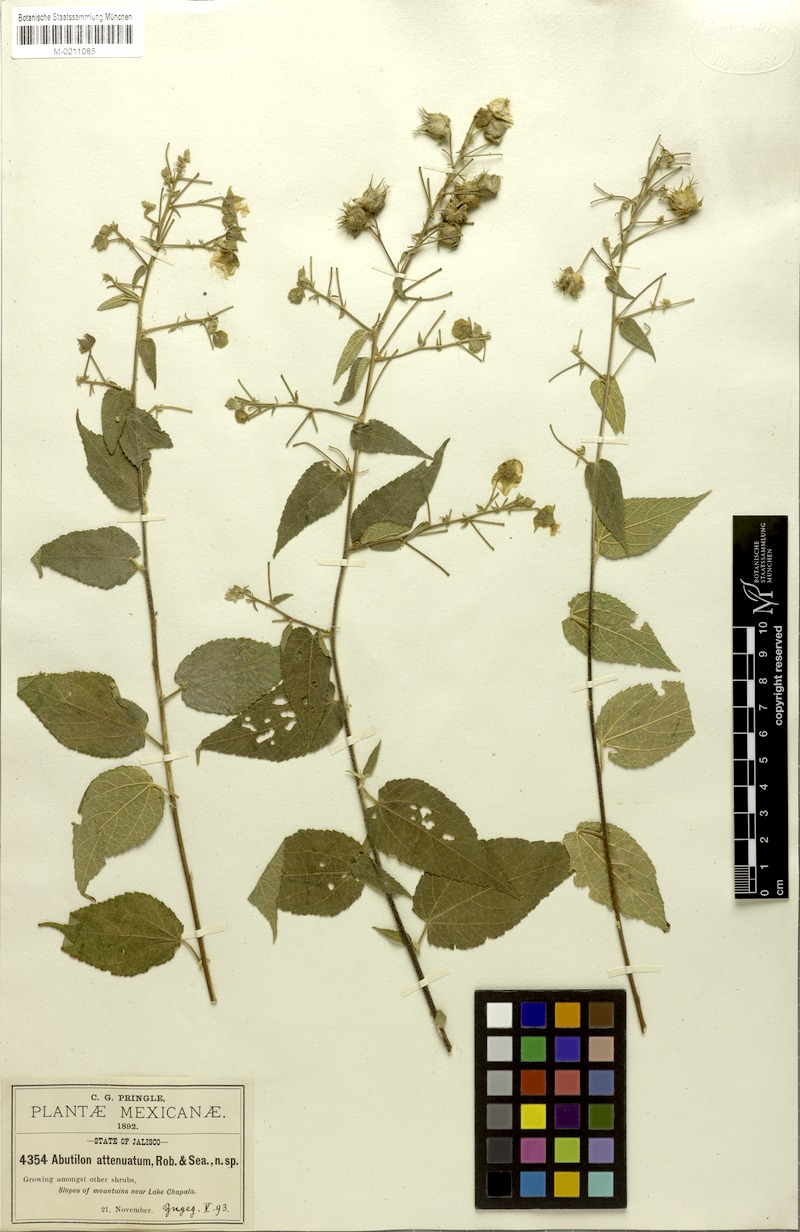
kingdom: Plantae
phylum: Tracheophyta
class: Magnoliopsida
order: Malvales
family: Malvaceae
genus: Pseudabutilon
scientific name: Pseudabutilon ellipticum
